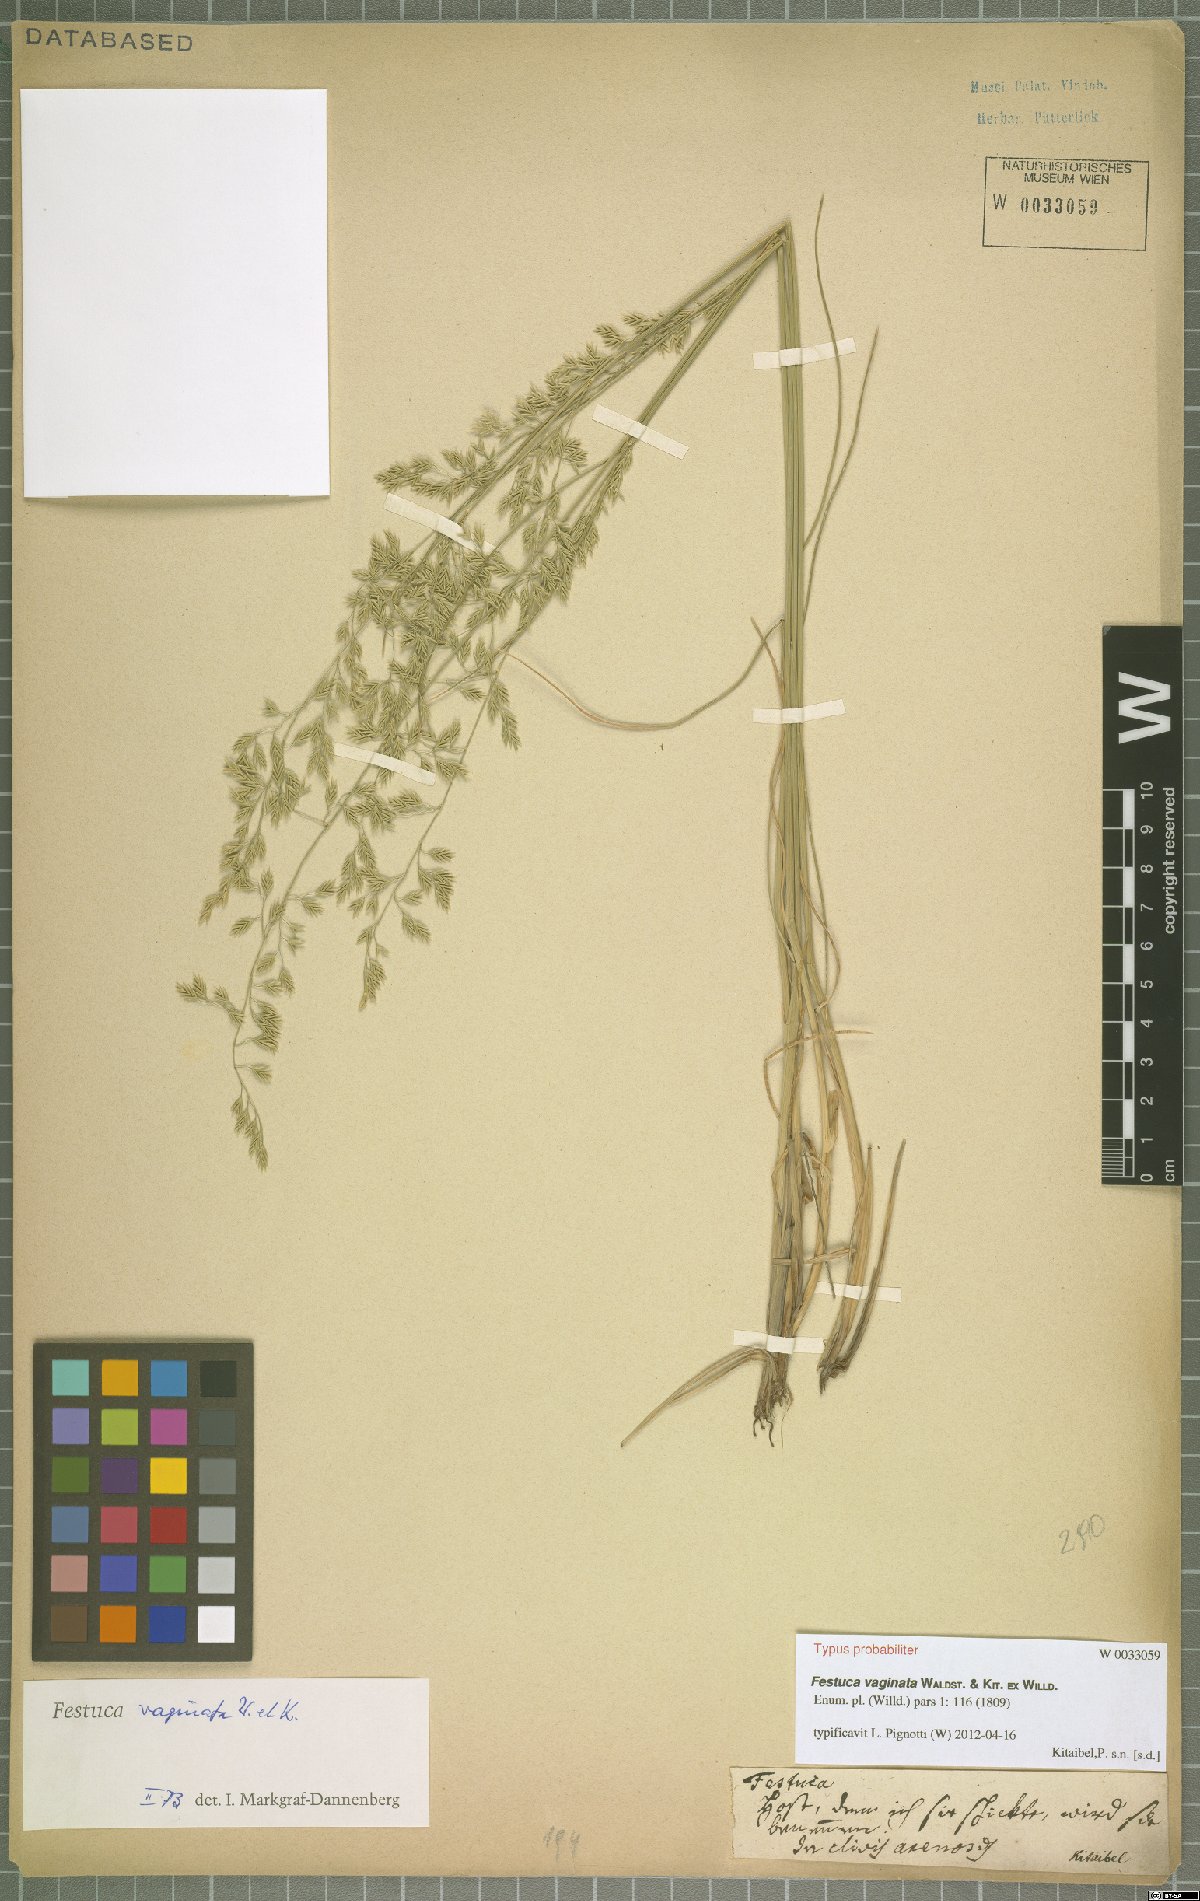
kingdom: Plantae
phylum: Tracheophyta
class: Liliopsida
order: Poales
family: Poaceae
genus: Festuca
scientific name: Festuca vaginata
